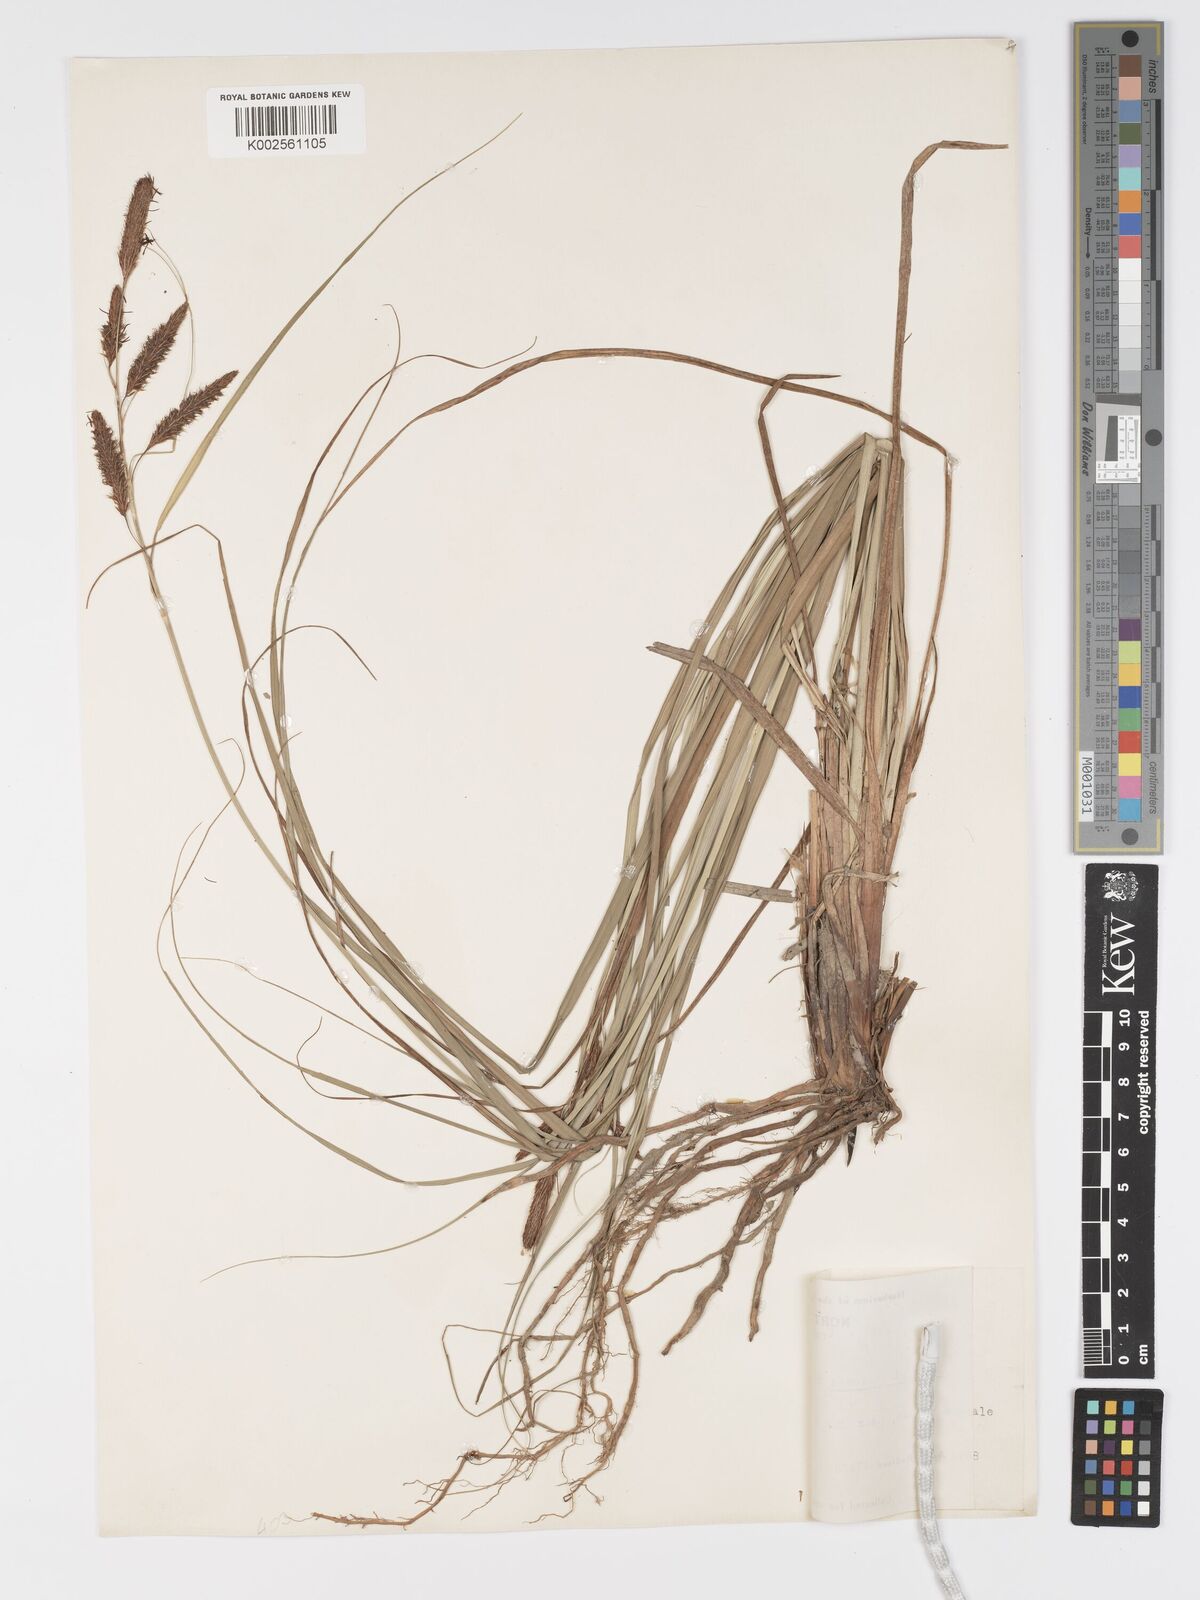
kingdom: Plantae
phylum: Tracheophyta
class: Liliopsida
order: Poales
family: Cyperaceae
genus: Carex
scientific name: Carex glaucescens
